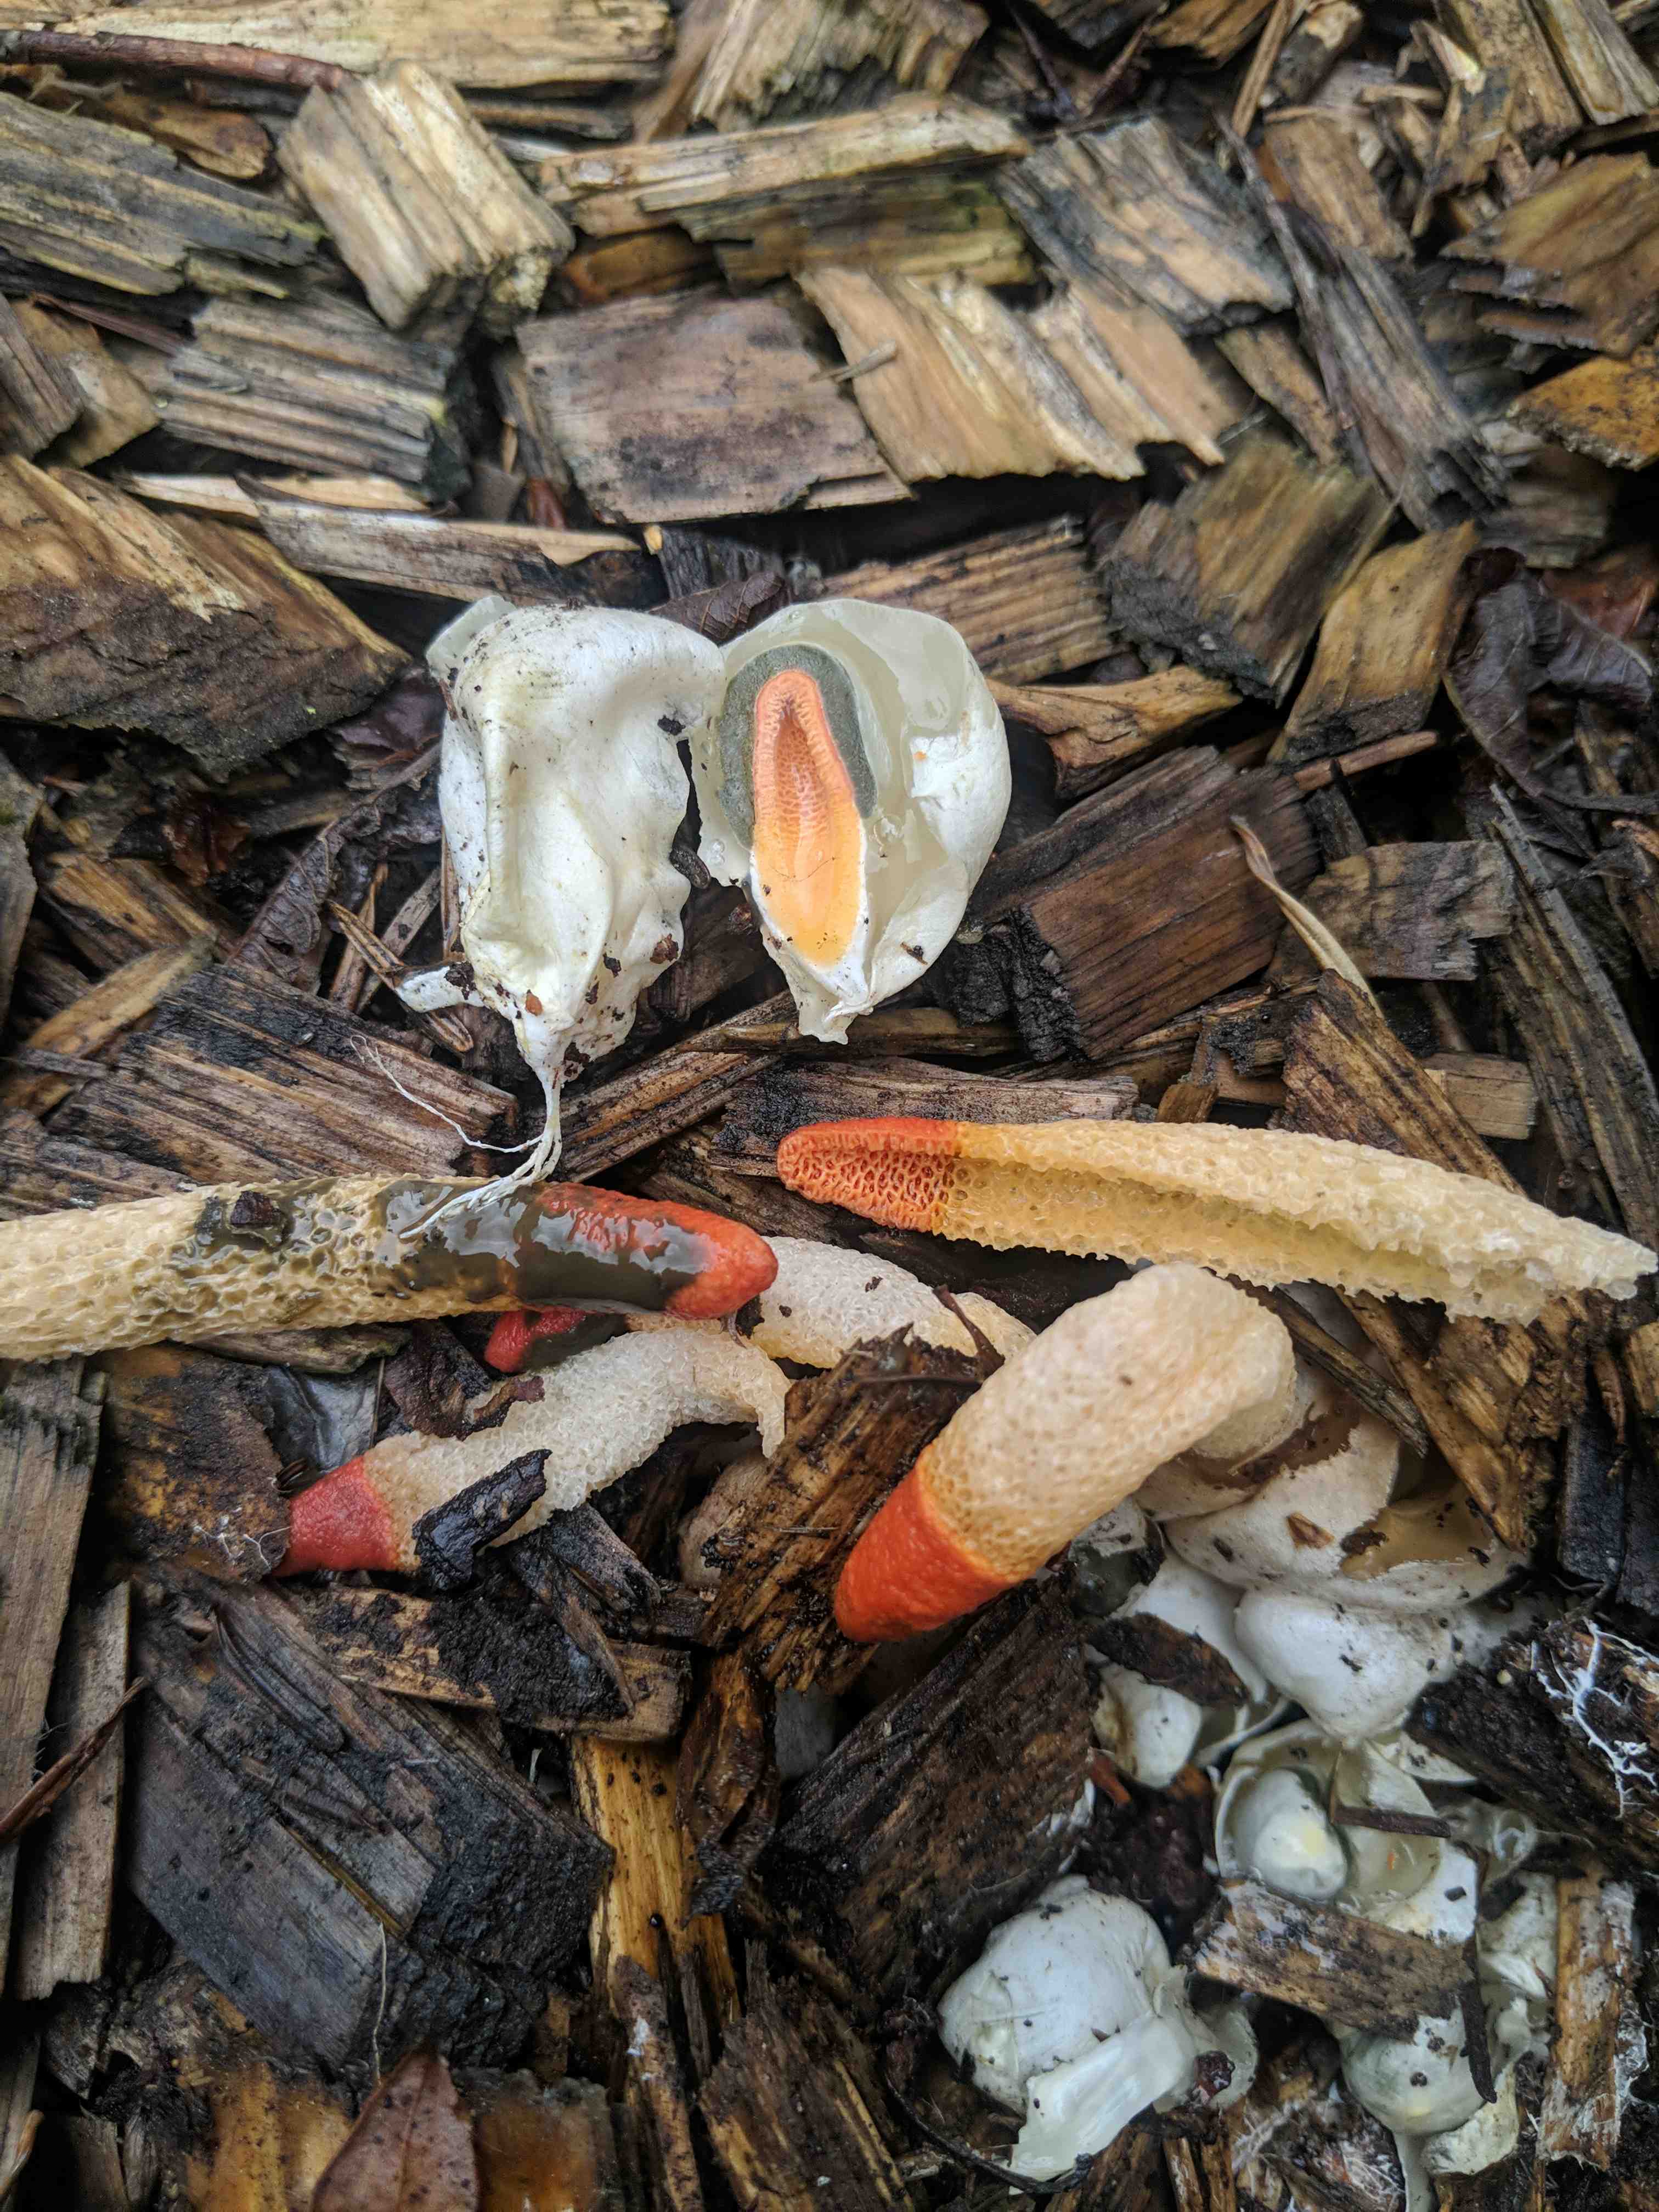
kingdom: Fungi
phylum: Basidiomycota
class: Agaricomycetes
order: Phallales
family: Phallaceae
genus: Mutinus
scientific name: Mutinus caninus
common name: hunde-stinksvamp
